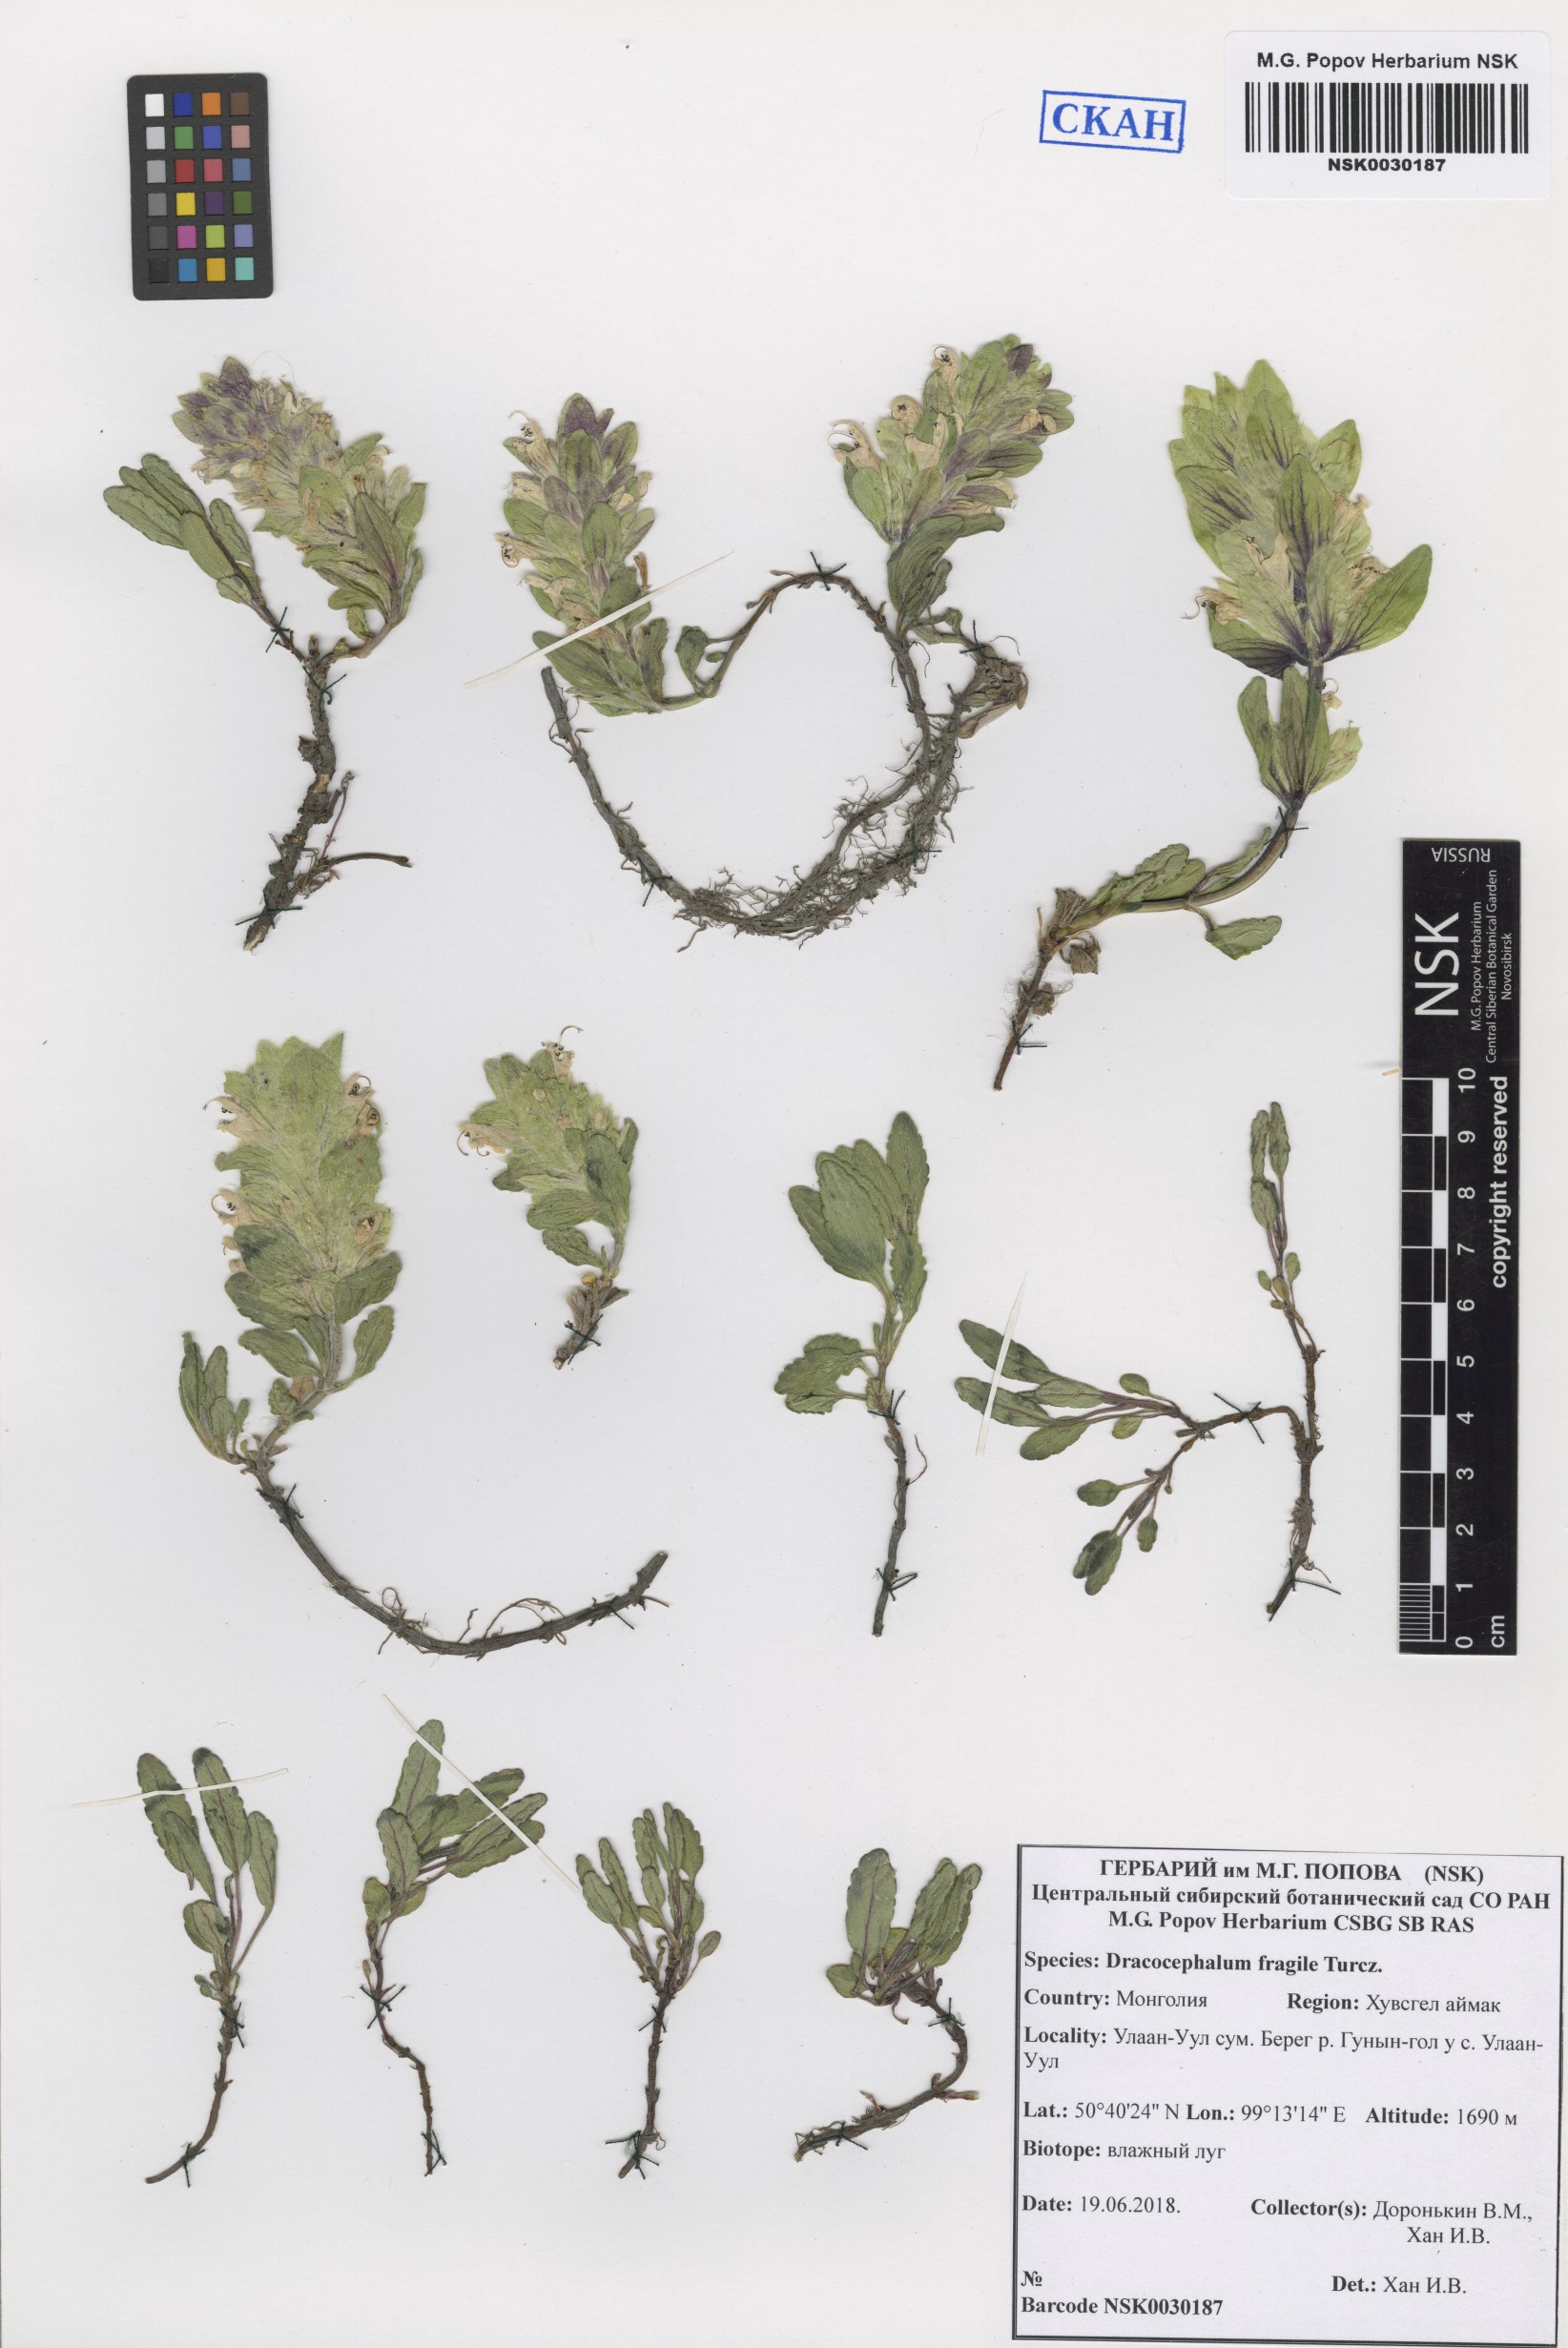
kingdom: Plantae
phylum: Tracheophyta
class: Magnoliopsida
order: Lamiales
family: Lamiaceae
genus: Dracocephalum
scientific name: Dracocephalum fragile
